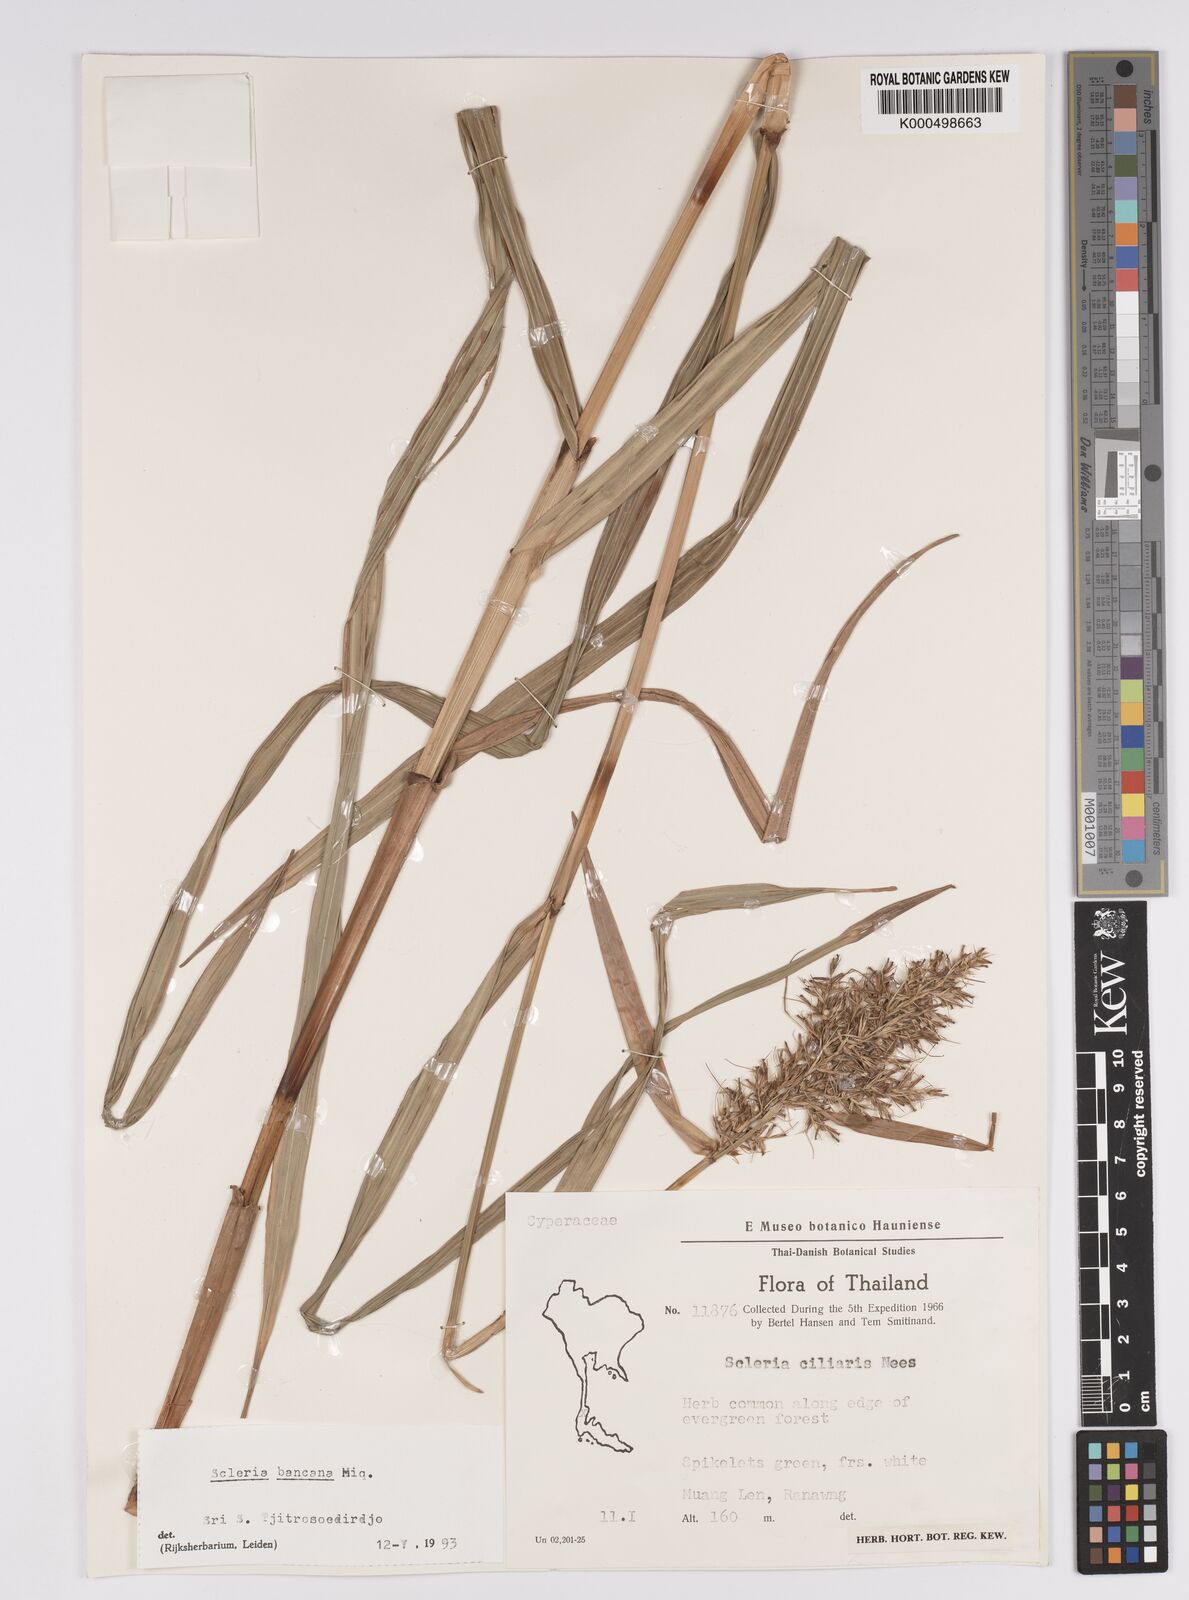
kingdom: Plantae
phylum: Tracheophyta
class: Liliopsida
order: Poales
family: Cyperaceae
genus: Scleria
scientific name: Scleria ciliaris
